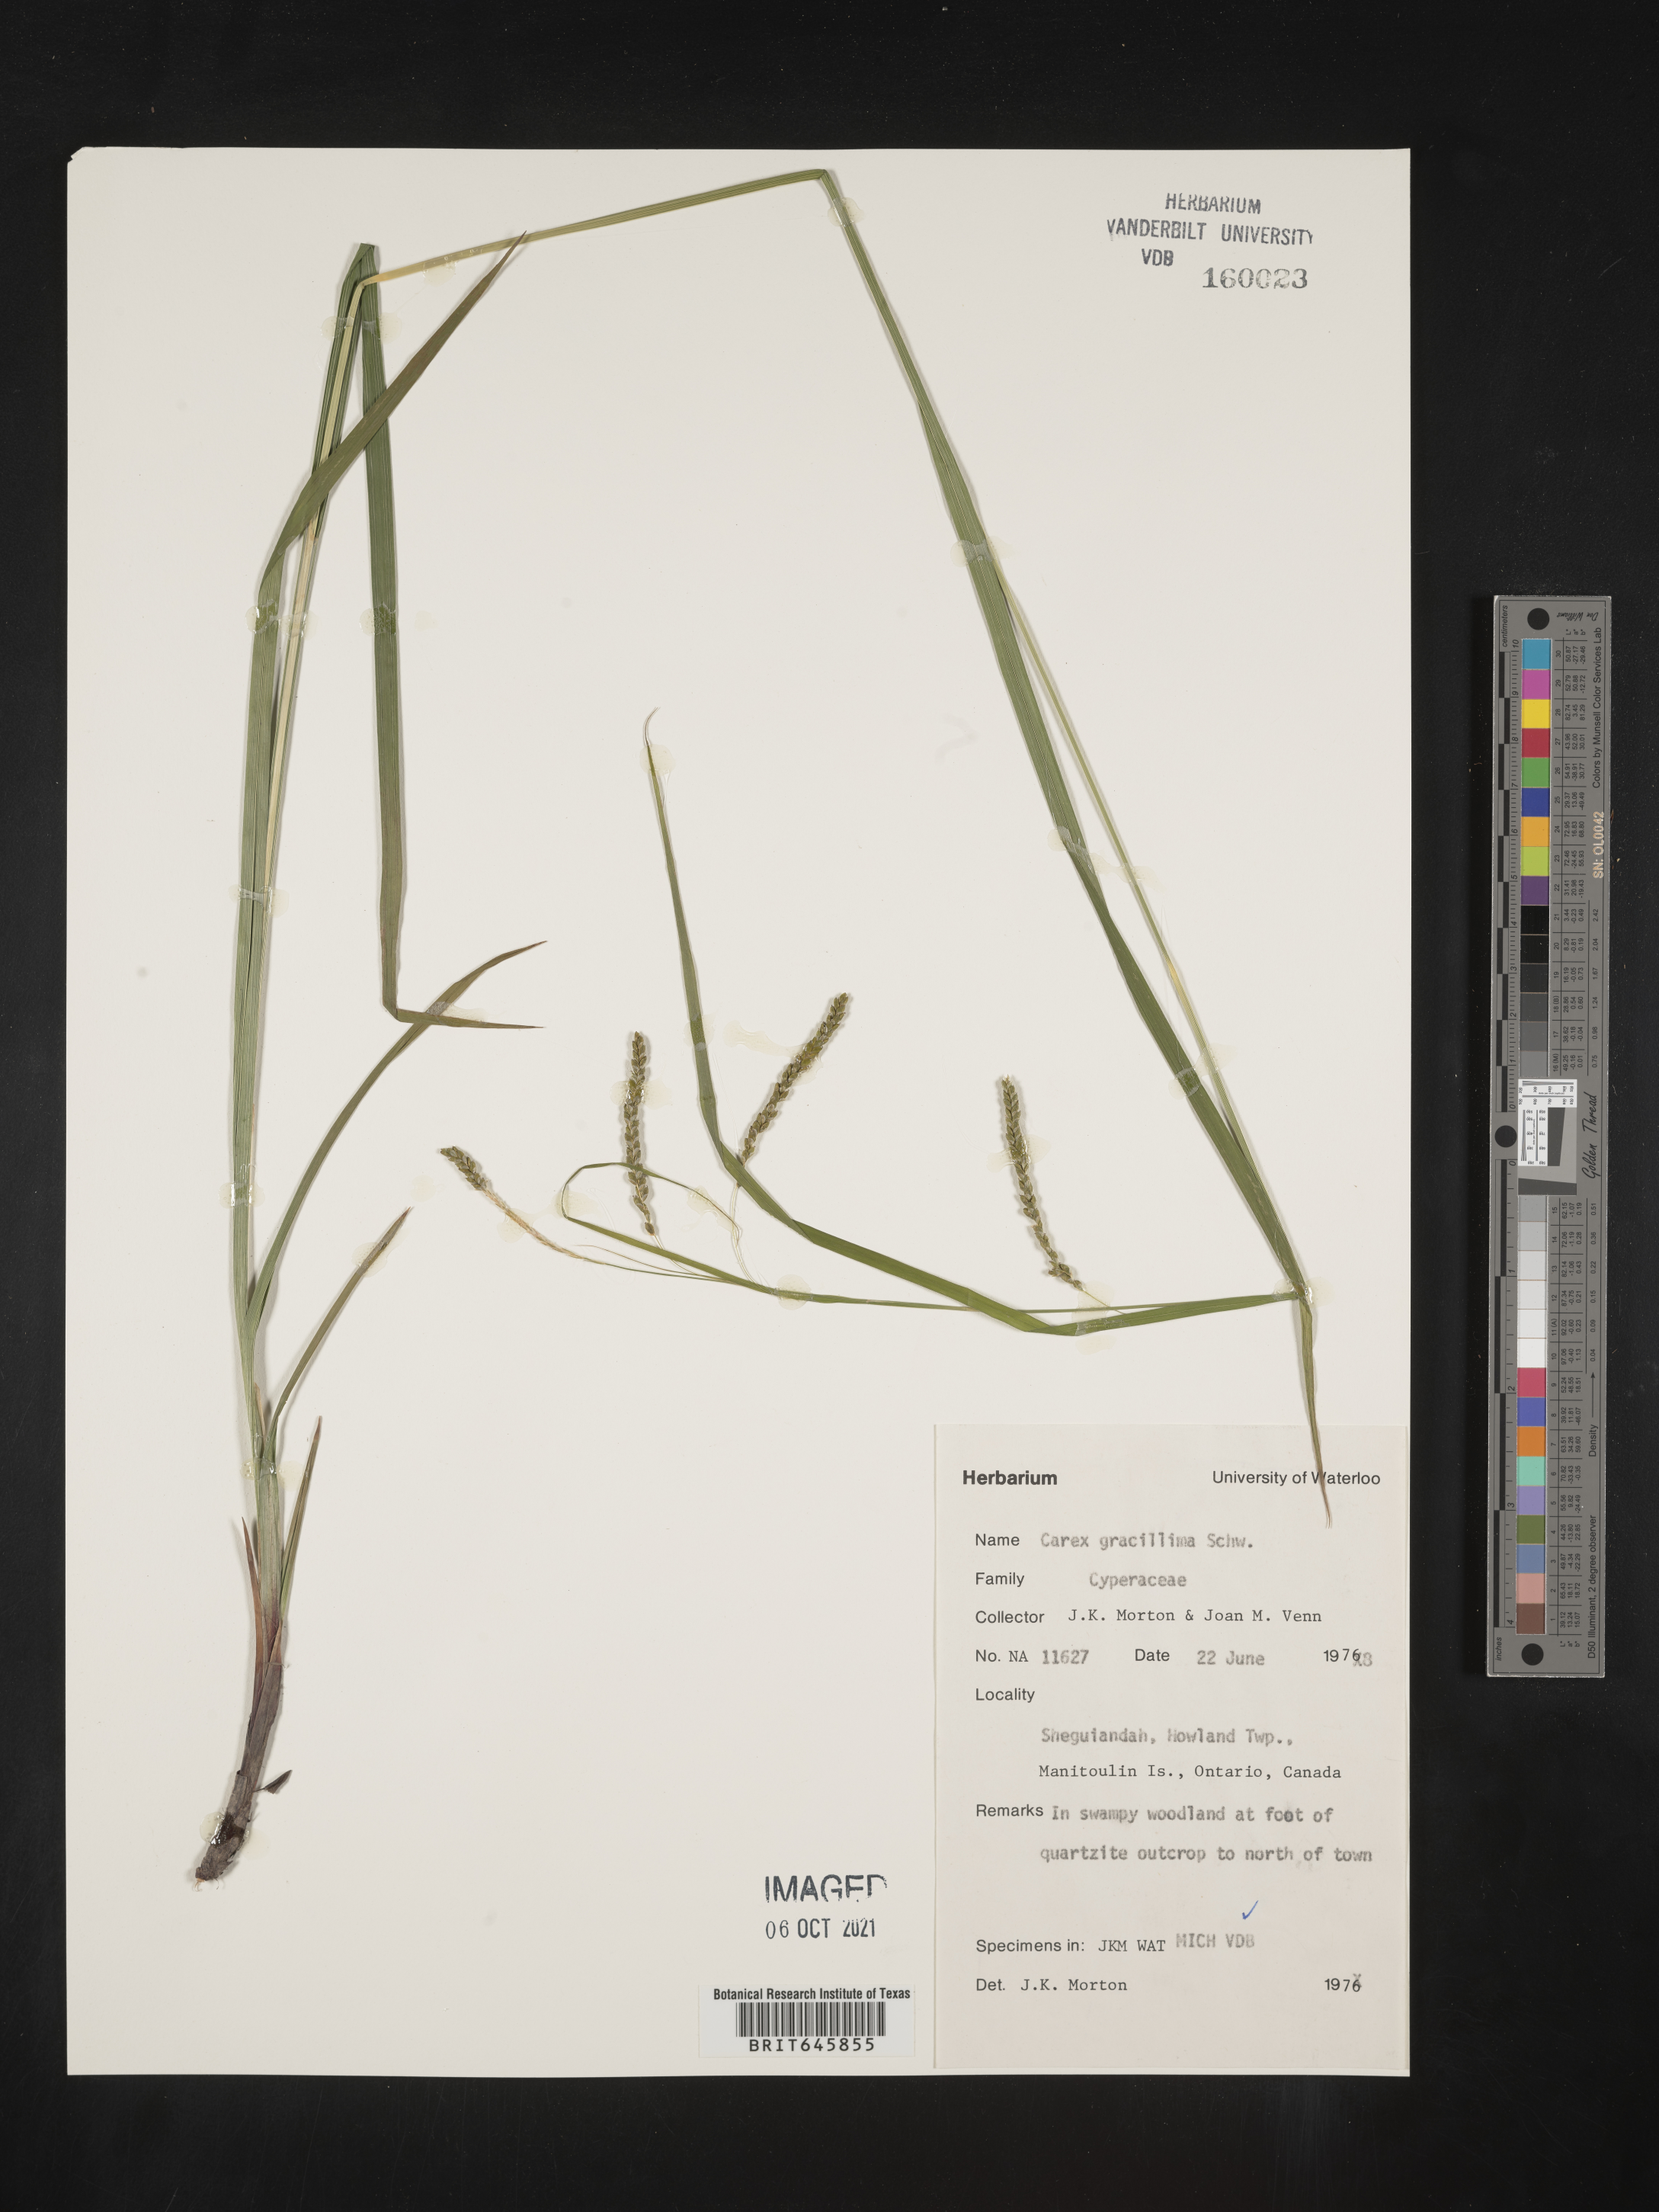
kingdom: Plantae
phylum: Tracheophyta
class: Liliopsida
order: Poales
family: Cyperaceae
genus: Carex
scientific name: Carex gracillima
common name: Graceful sedge
